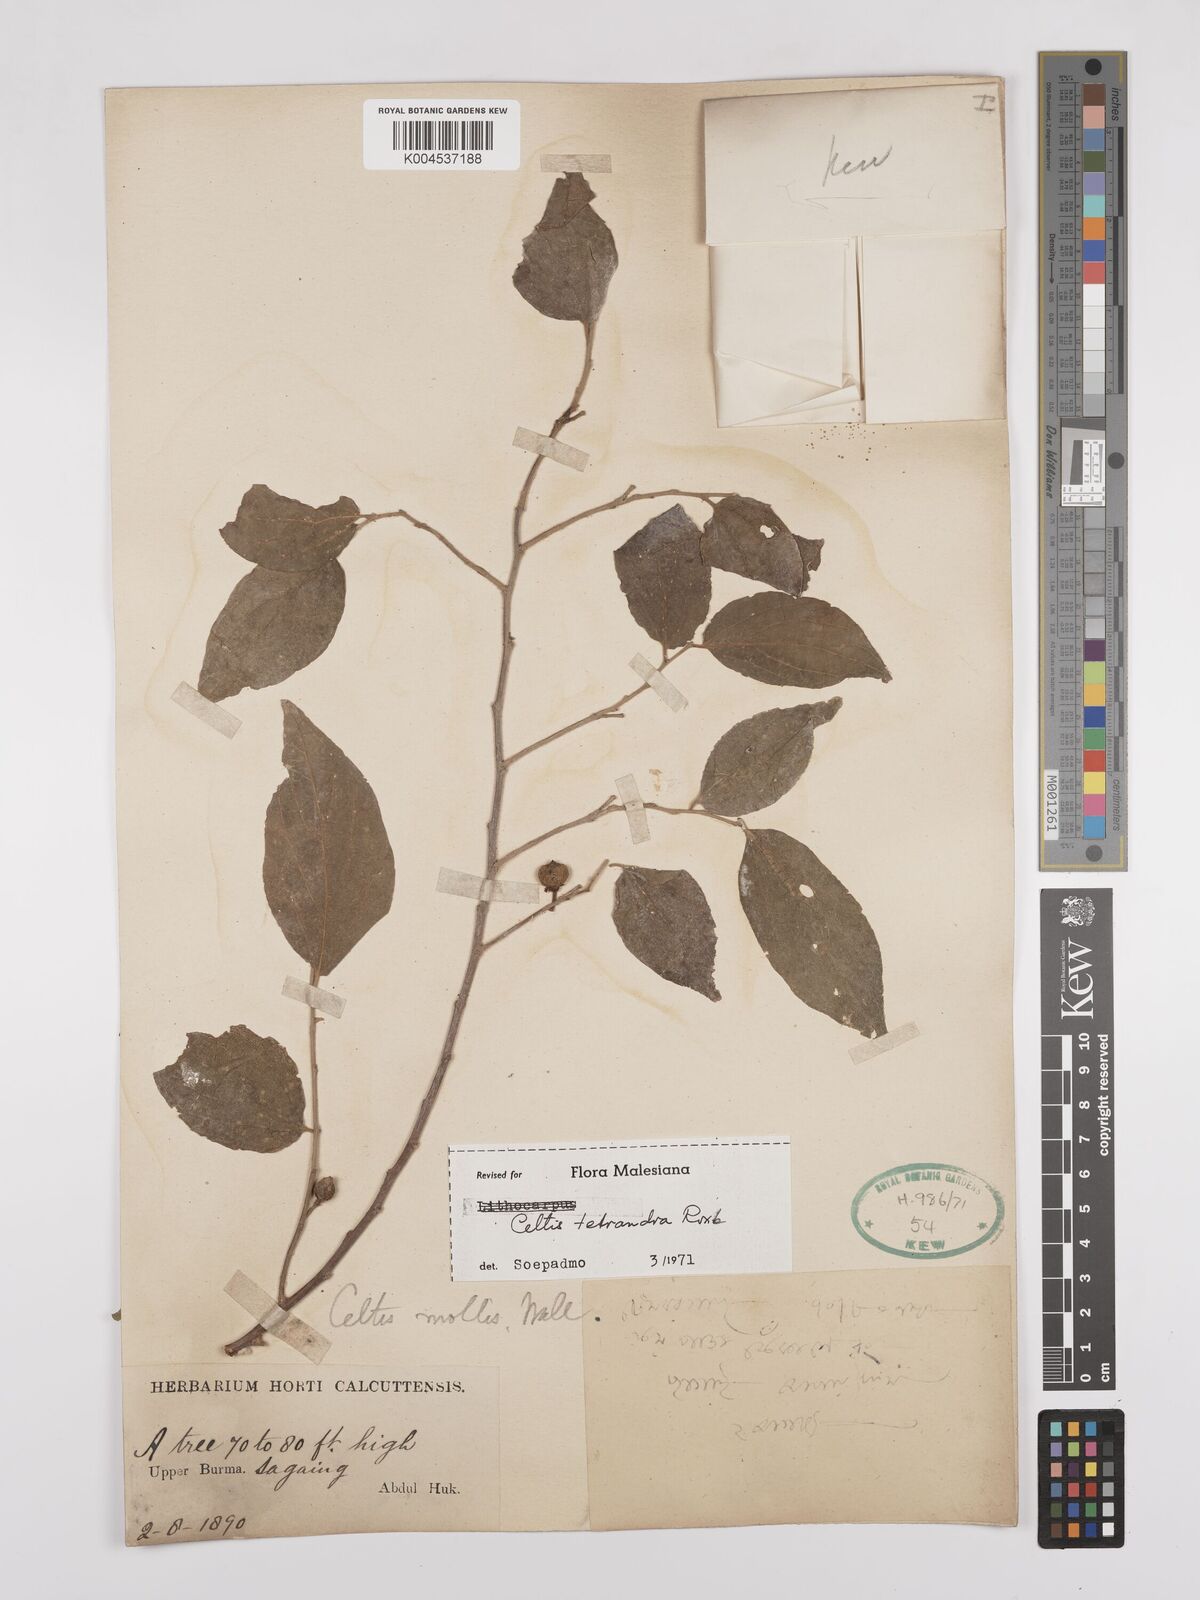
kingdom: Plantae
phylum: Tracheophyta
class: Magnoliopsida
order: Rosales
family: Cannabaceae
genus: Celtis
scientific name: Celtis tetrandra
